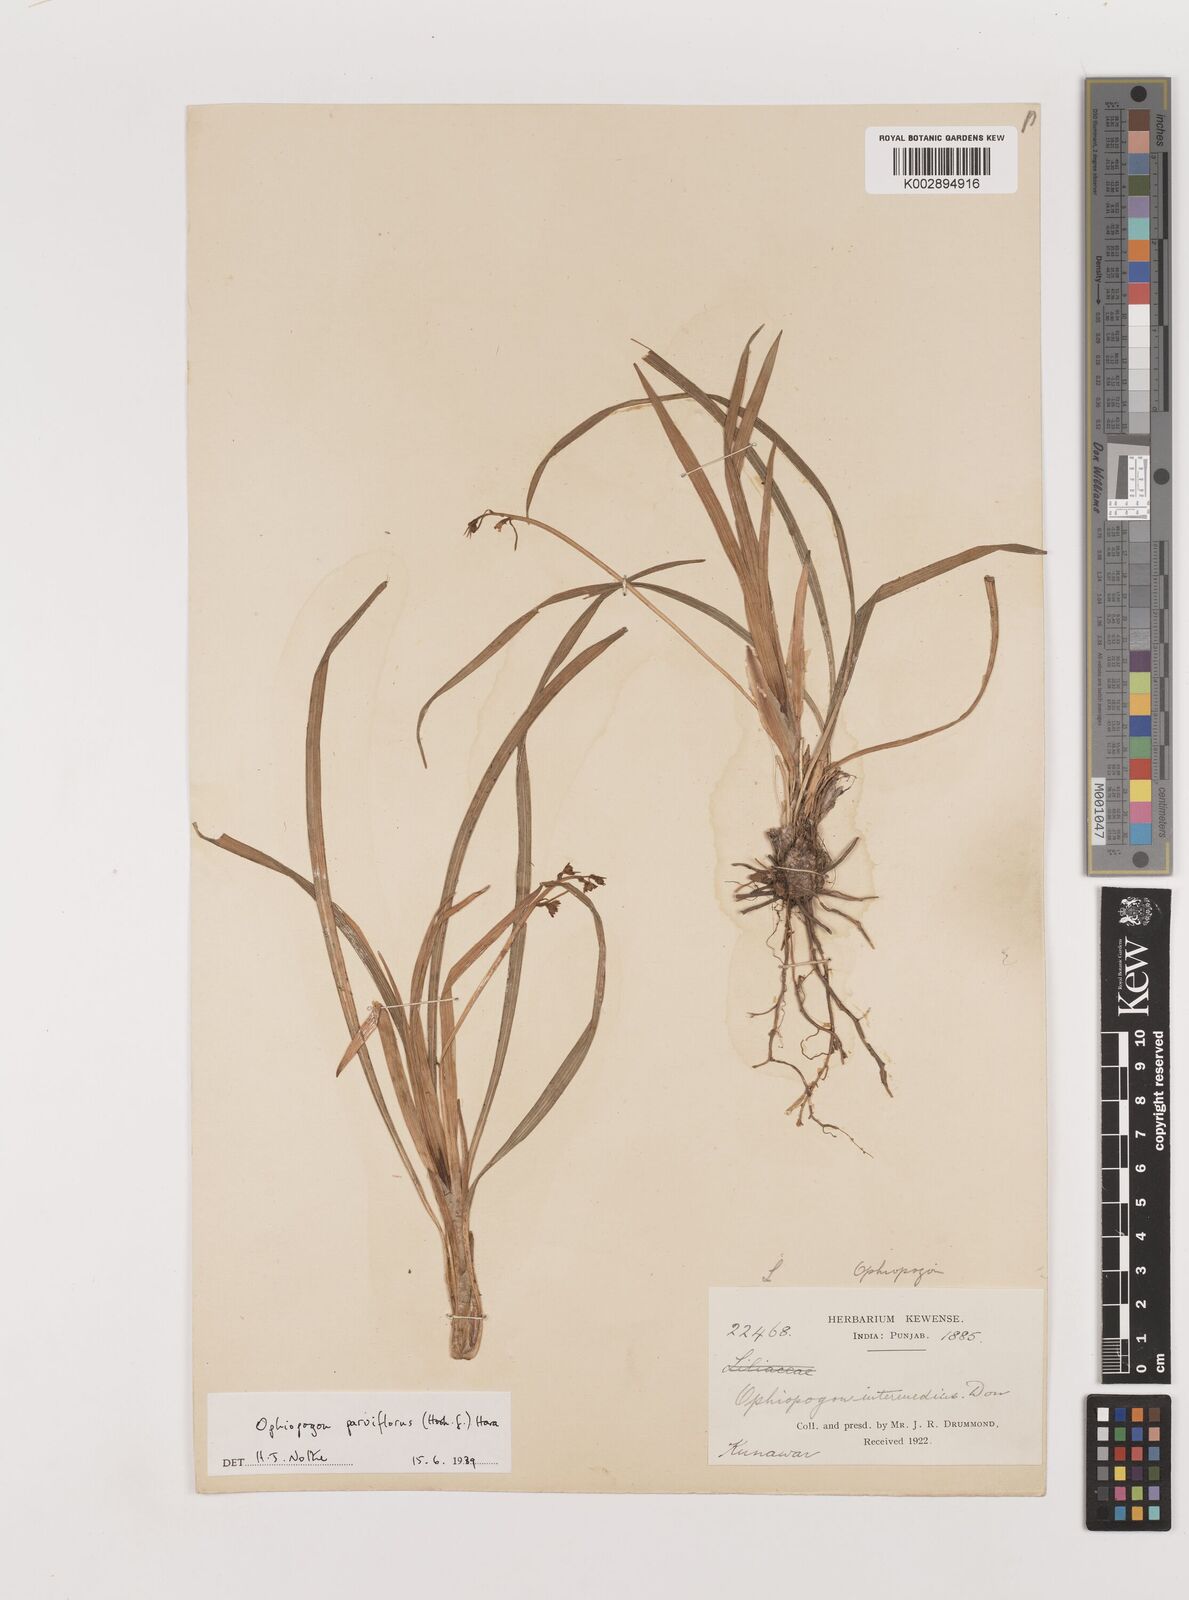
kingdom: Plantae
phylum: Tracheophyta
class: Liliopsida
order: Asparagales
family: Asparagaceae
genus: Ophiopogon
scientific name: Ophiopogon intermedius
